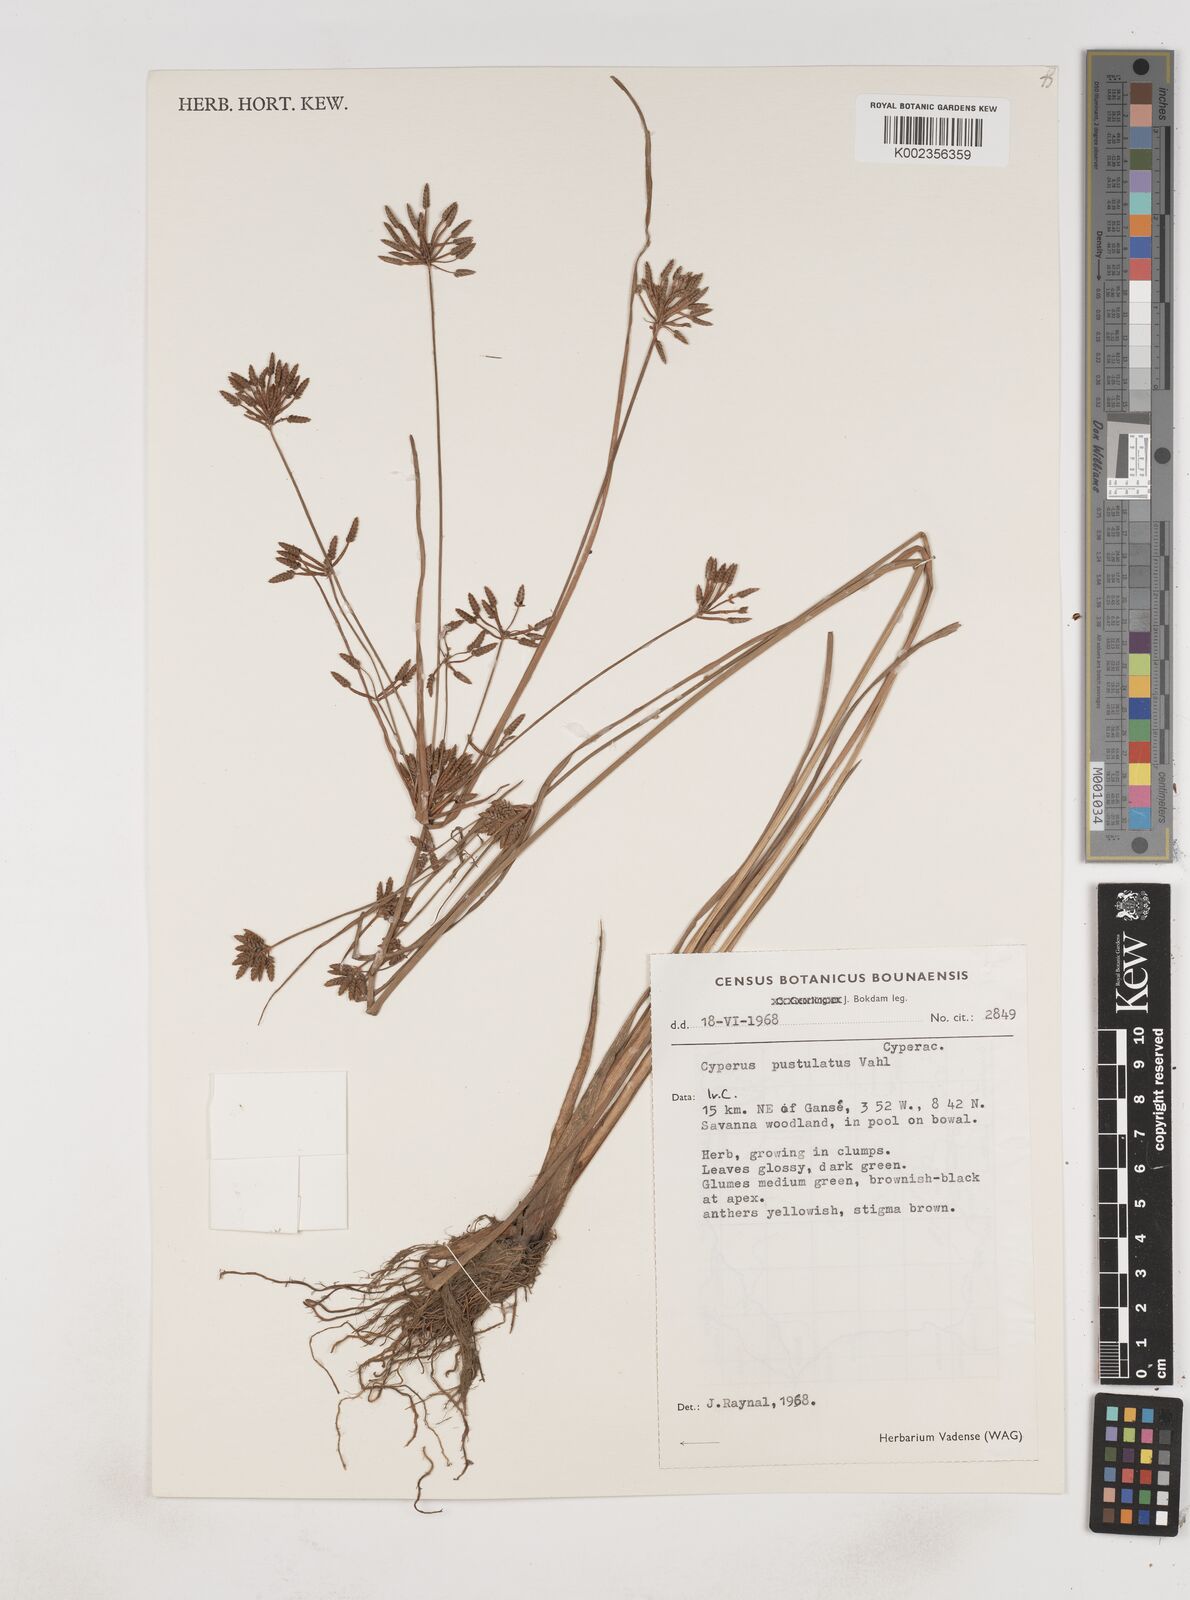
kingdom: Plantae
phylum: Tracheophyta
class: Liliopsida
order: Poales
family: Cyperaceae
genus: Cyperus
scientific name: Cyperus pustulatus
